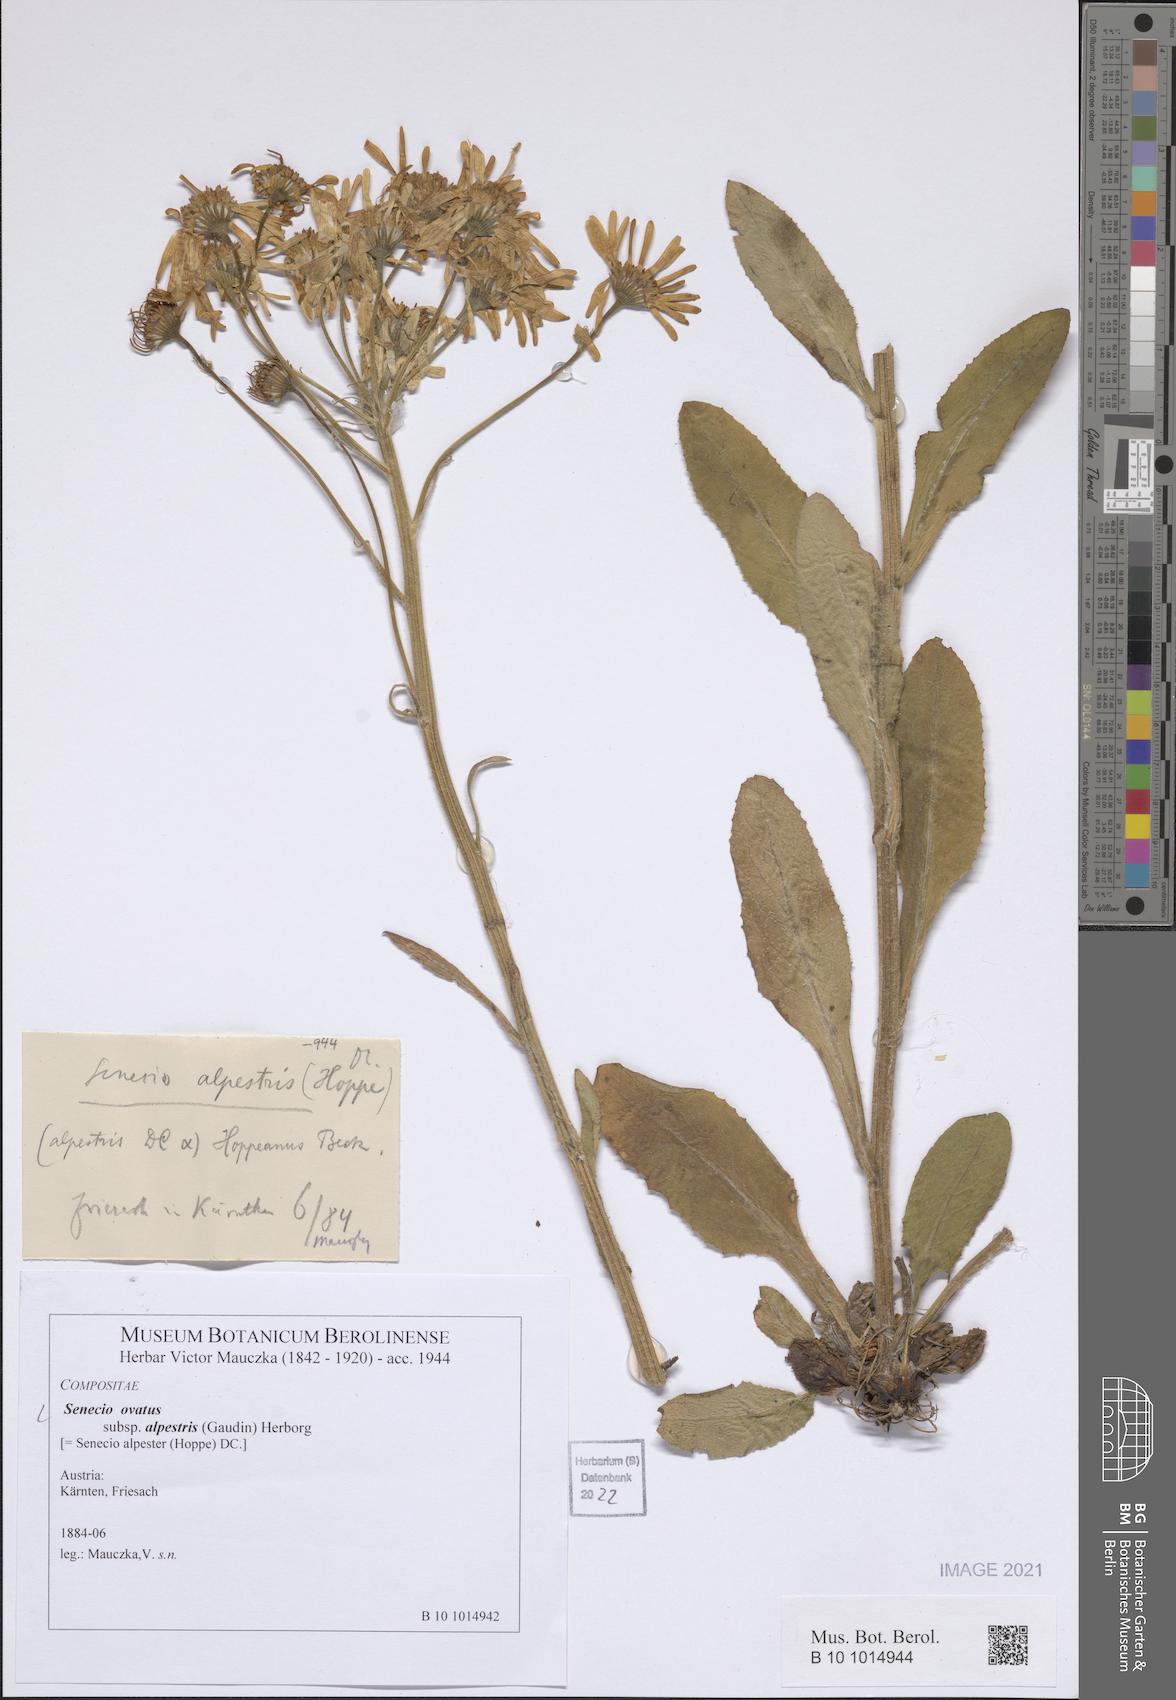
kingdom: Plantae
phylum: Tracheophyta
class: Magnoliopsida
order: Asterales
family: Asteraceae
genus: Senecio
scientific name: Senecio ovatus
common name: Wood ragwort
